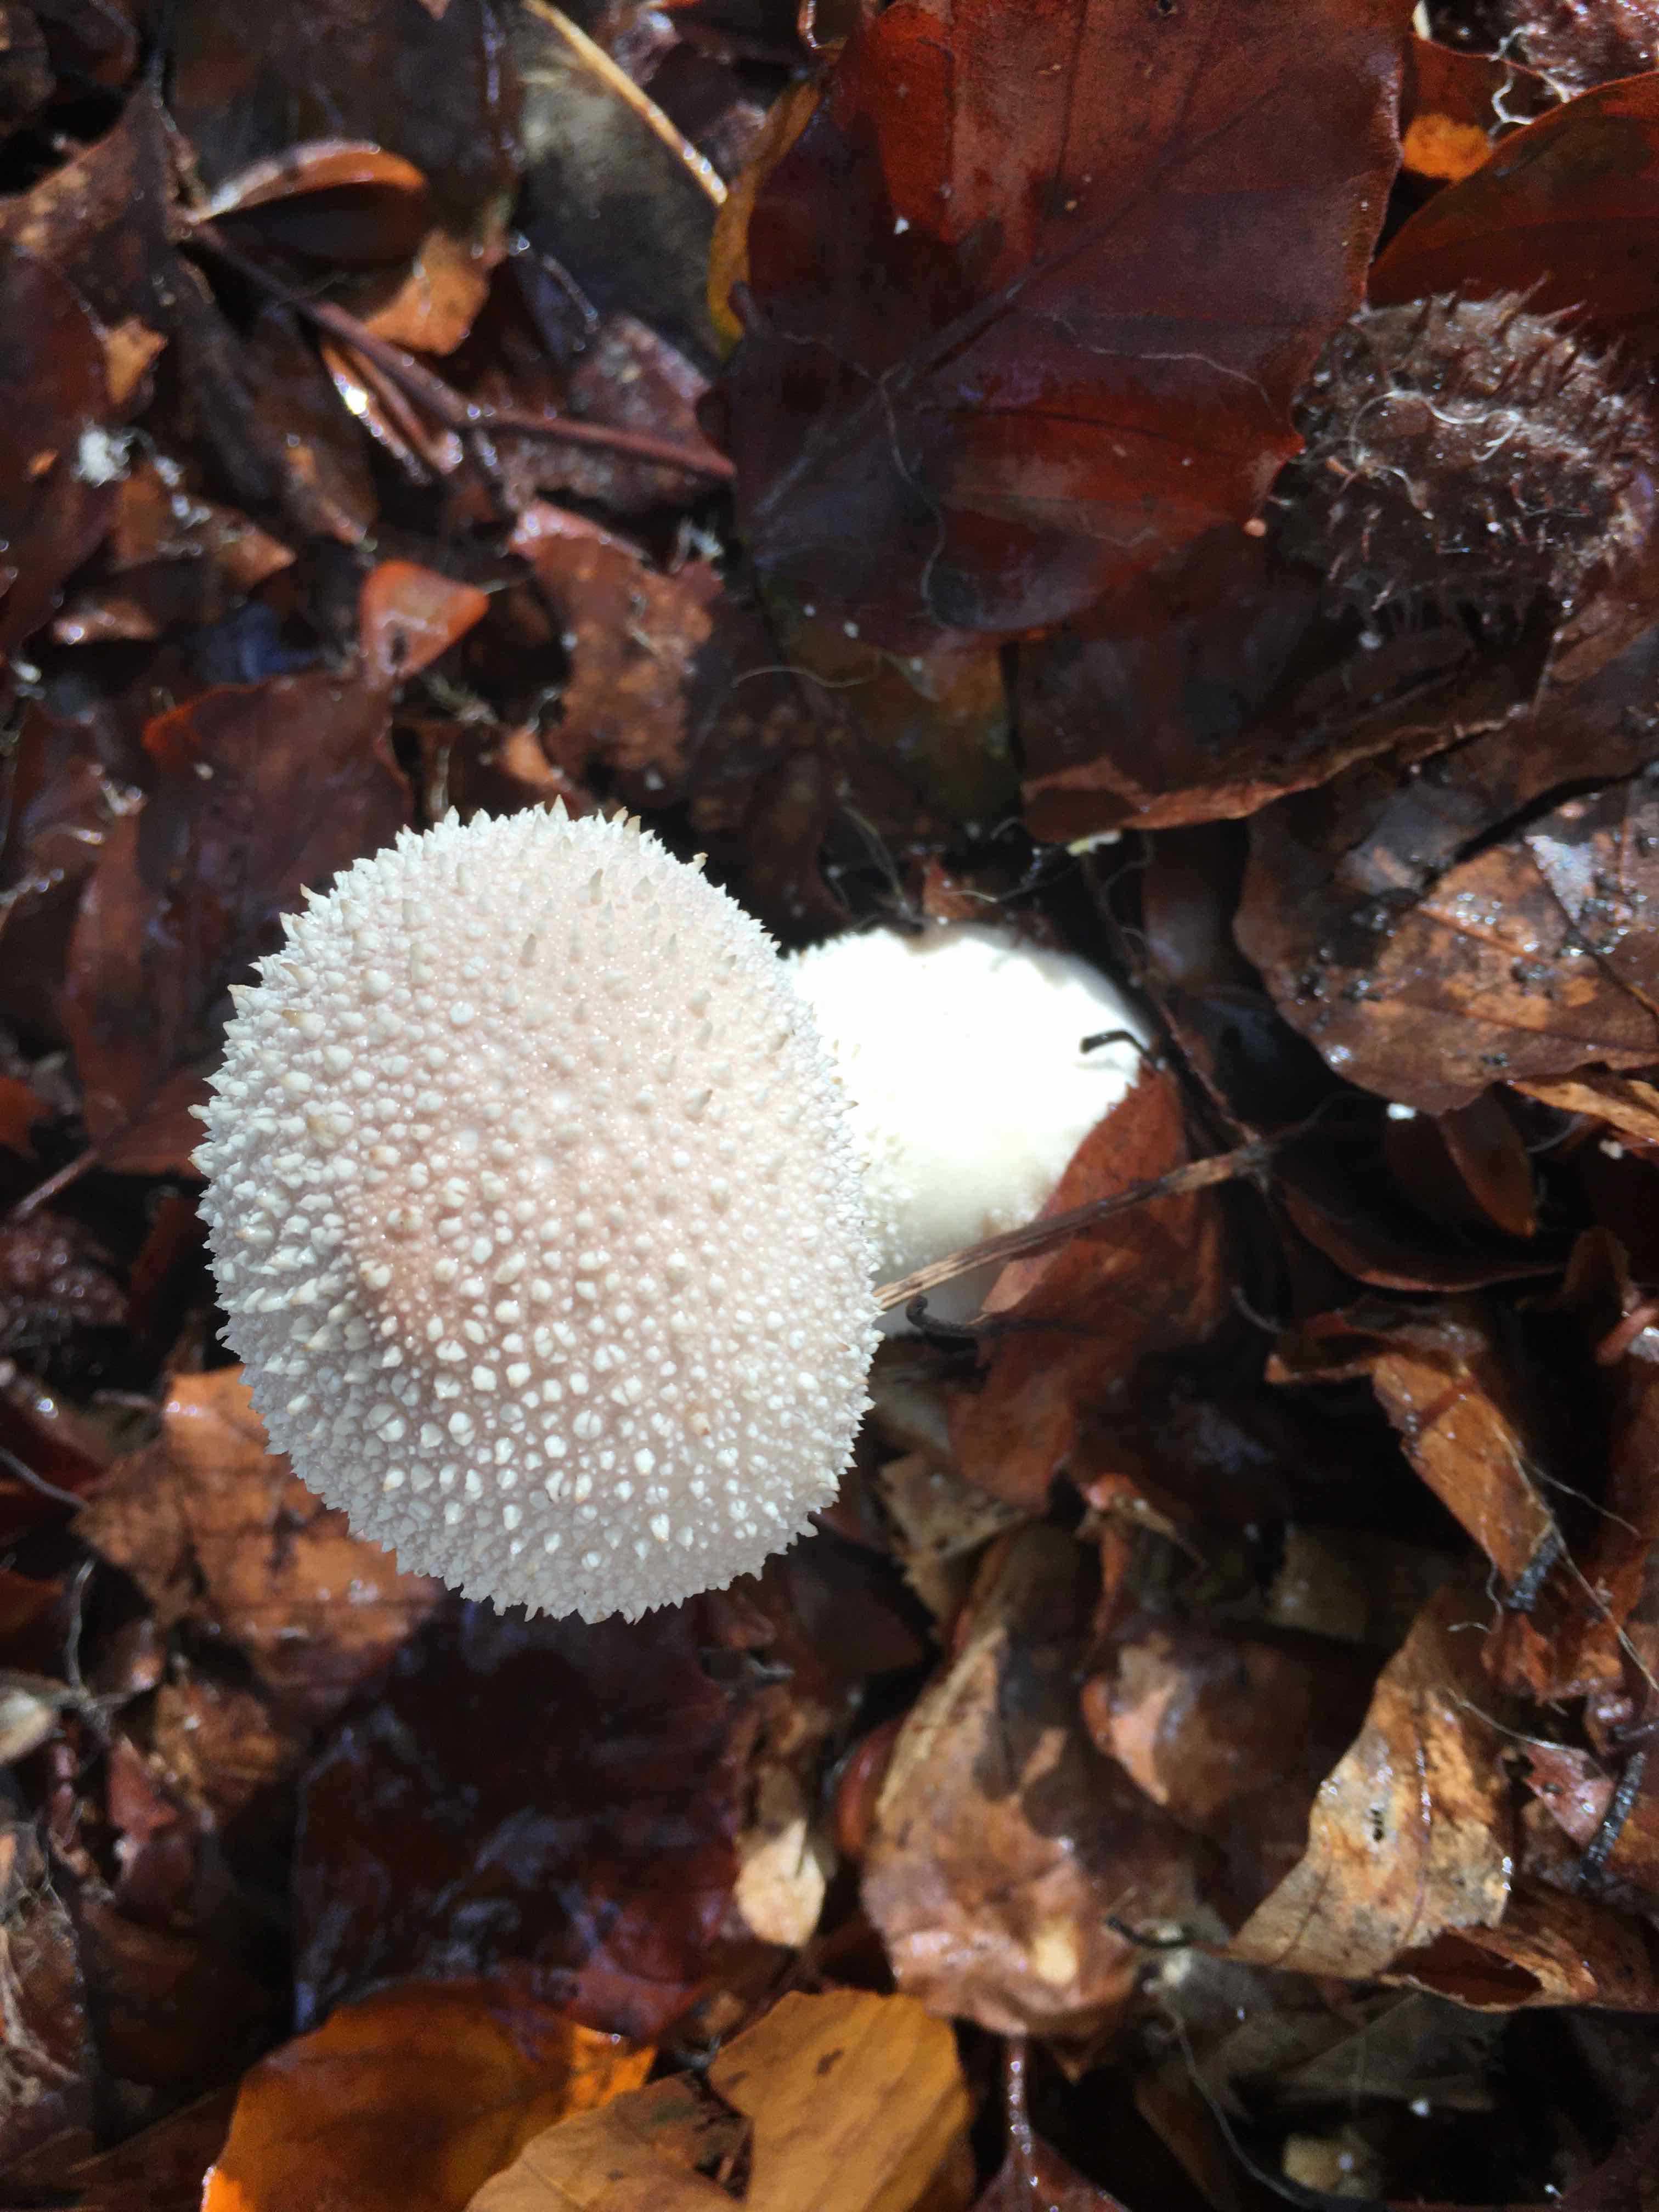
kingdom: Fungi
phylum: Basidiomycota
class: Agaricomycetes
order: Agaricales
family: Lycoperdaceae
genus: Lycoperdon
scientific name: Lycoperdon perlatum
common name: krystal-støvbold
